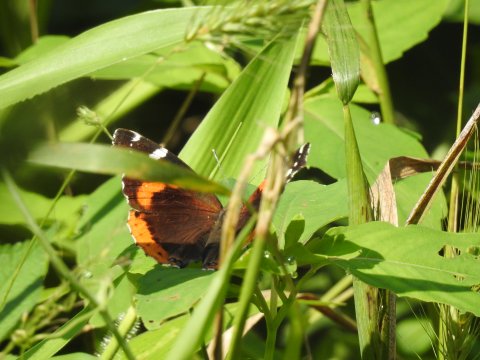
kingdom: Animalia
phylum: Arthropoda
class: Insecta
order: Lepidoptera
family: Nymphalidae
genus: Vanessa
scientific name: Vanessa atalanta
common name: Red Admiral
